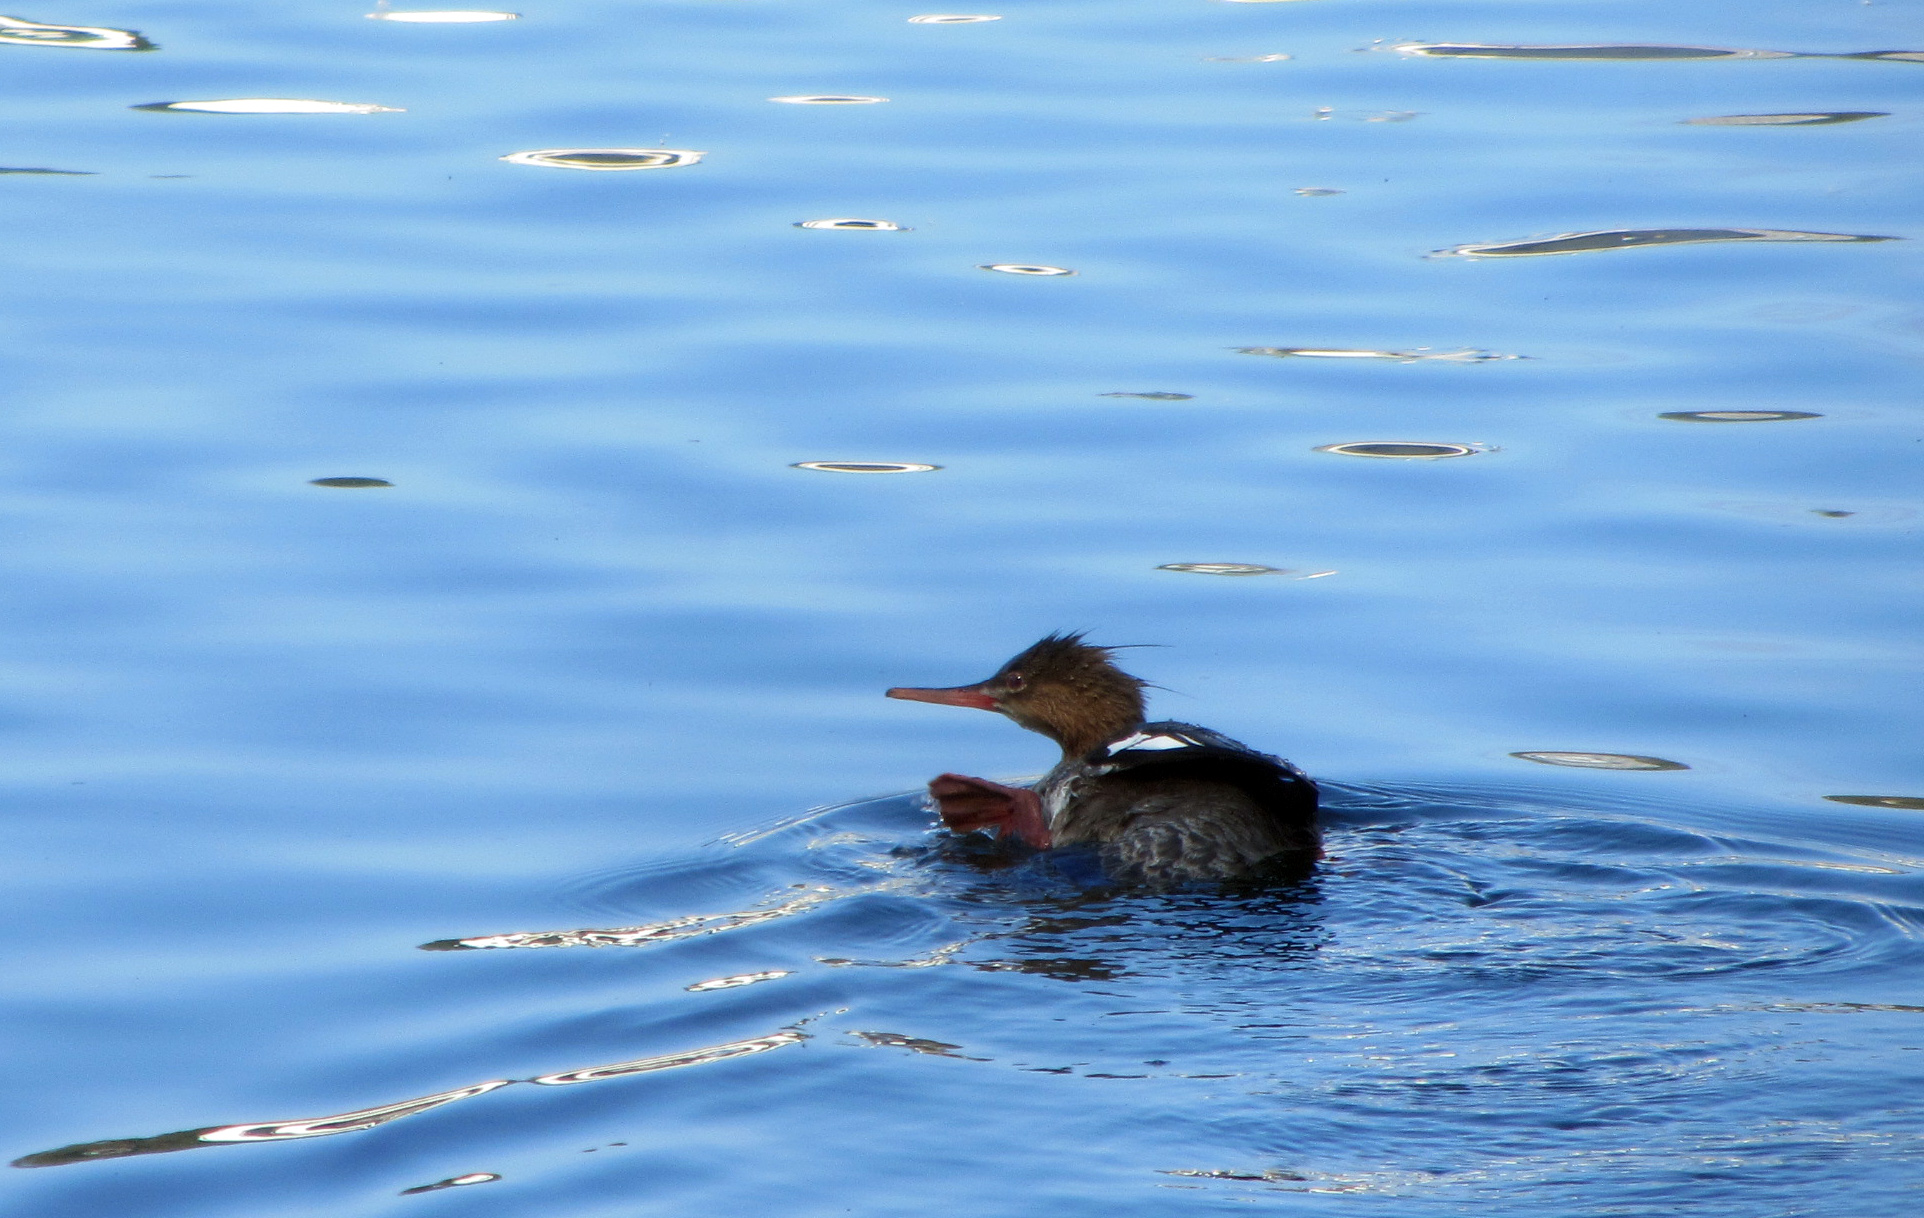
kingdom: Animalia
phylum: Chordata
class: Aves
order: Anseriformes
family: Anatidae
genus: Mergus
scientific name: Mergus merganser
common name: Common merganser
